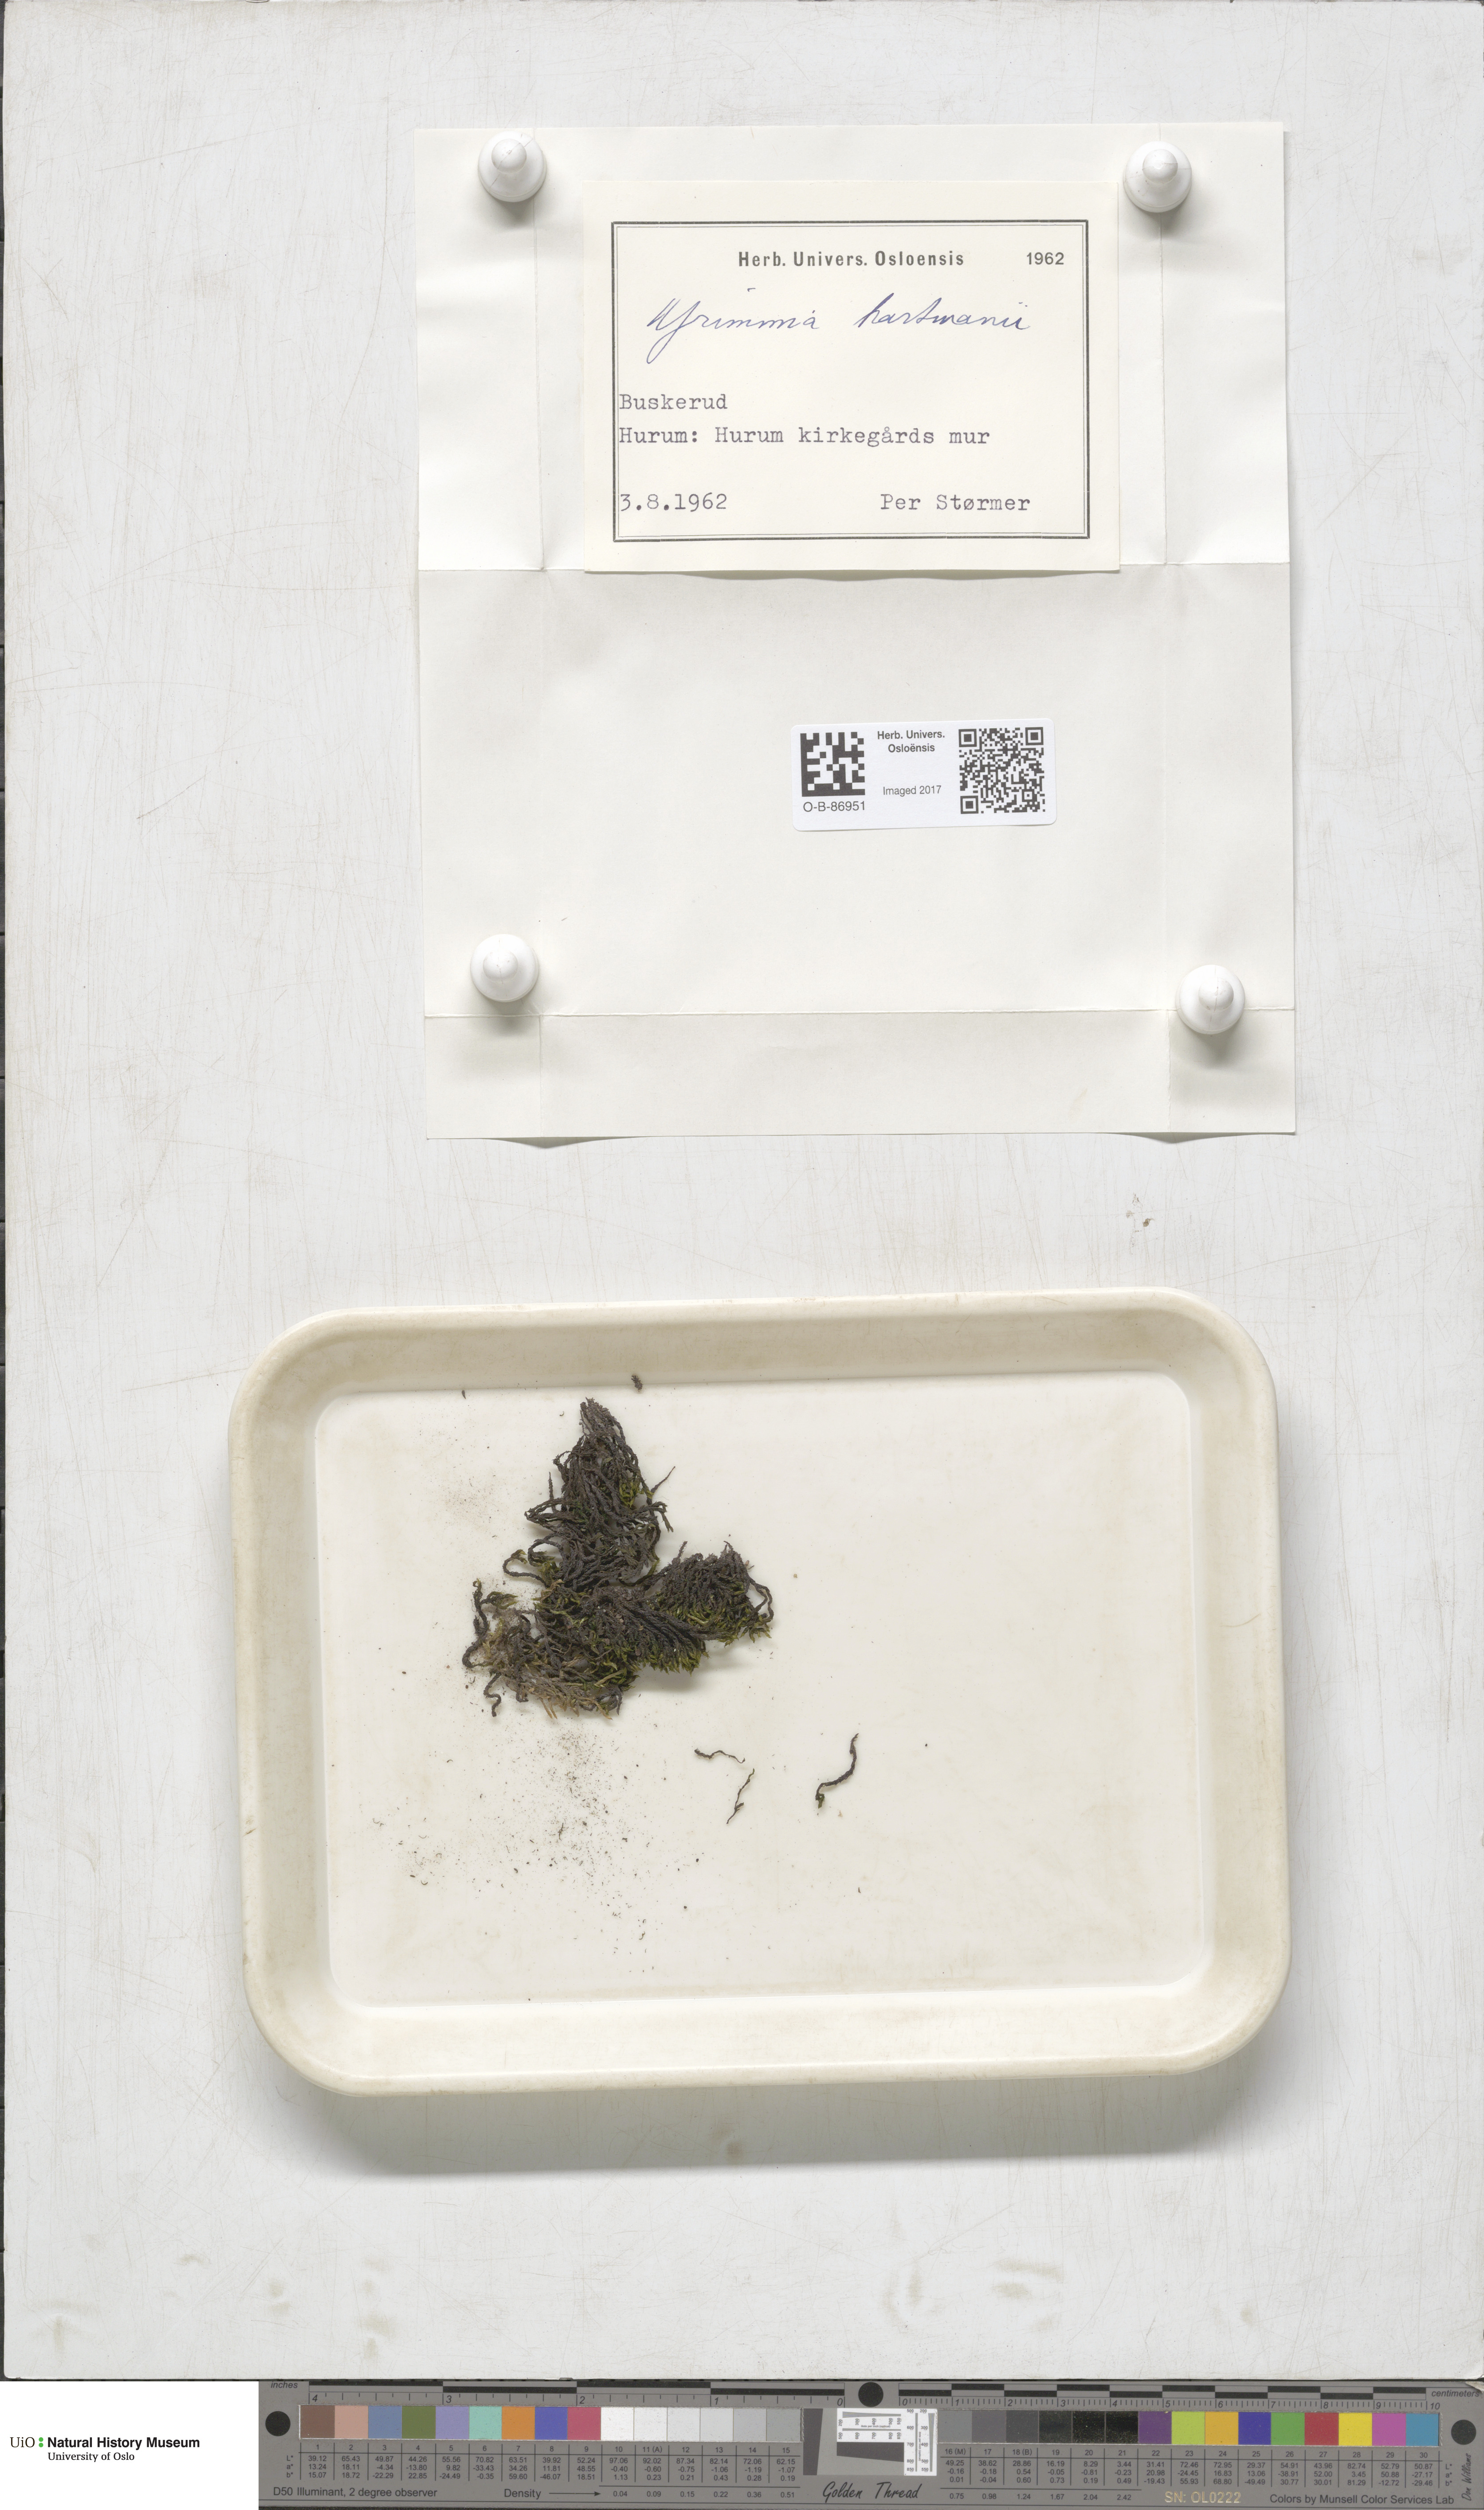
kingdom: Plantae
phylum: Bryophyta
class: Bryopsida
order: Grimmiales
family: Grimmiaceae
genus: Grimmia
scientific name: Grimmia hartmanii
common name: Hartman's grimmia
